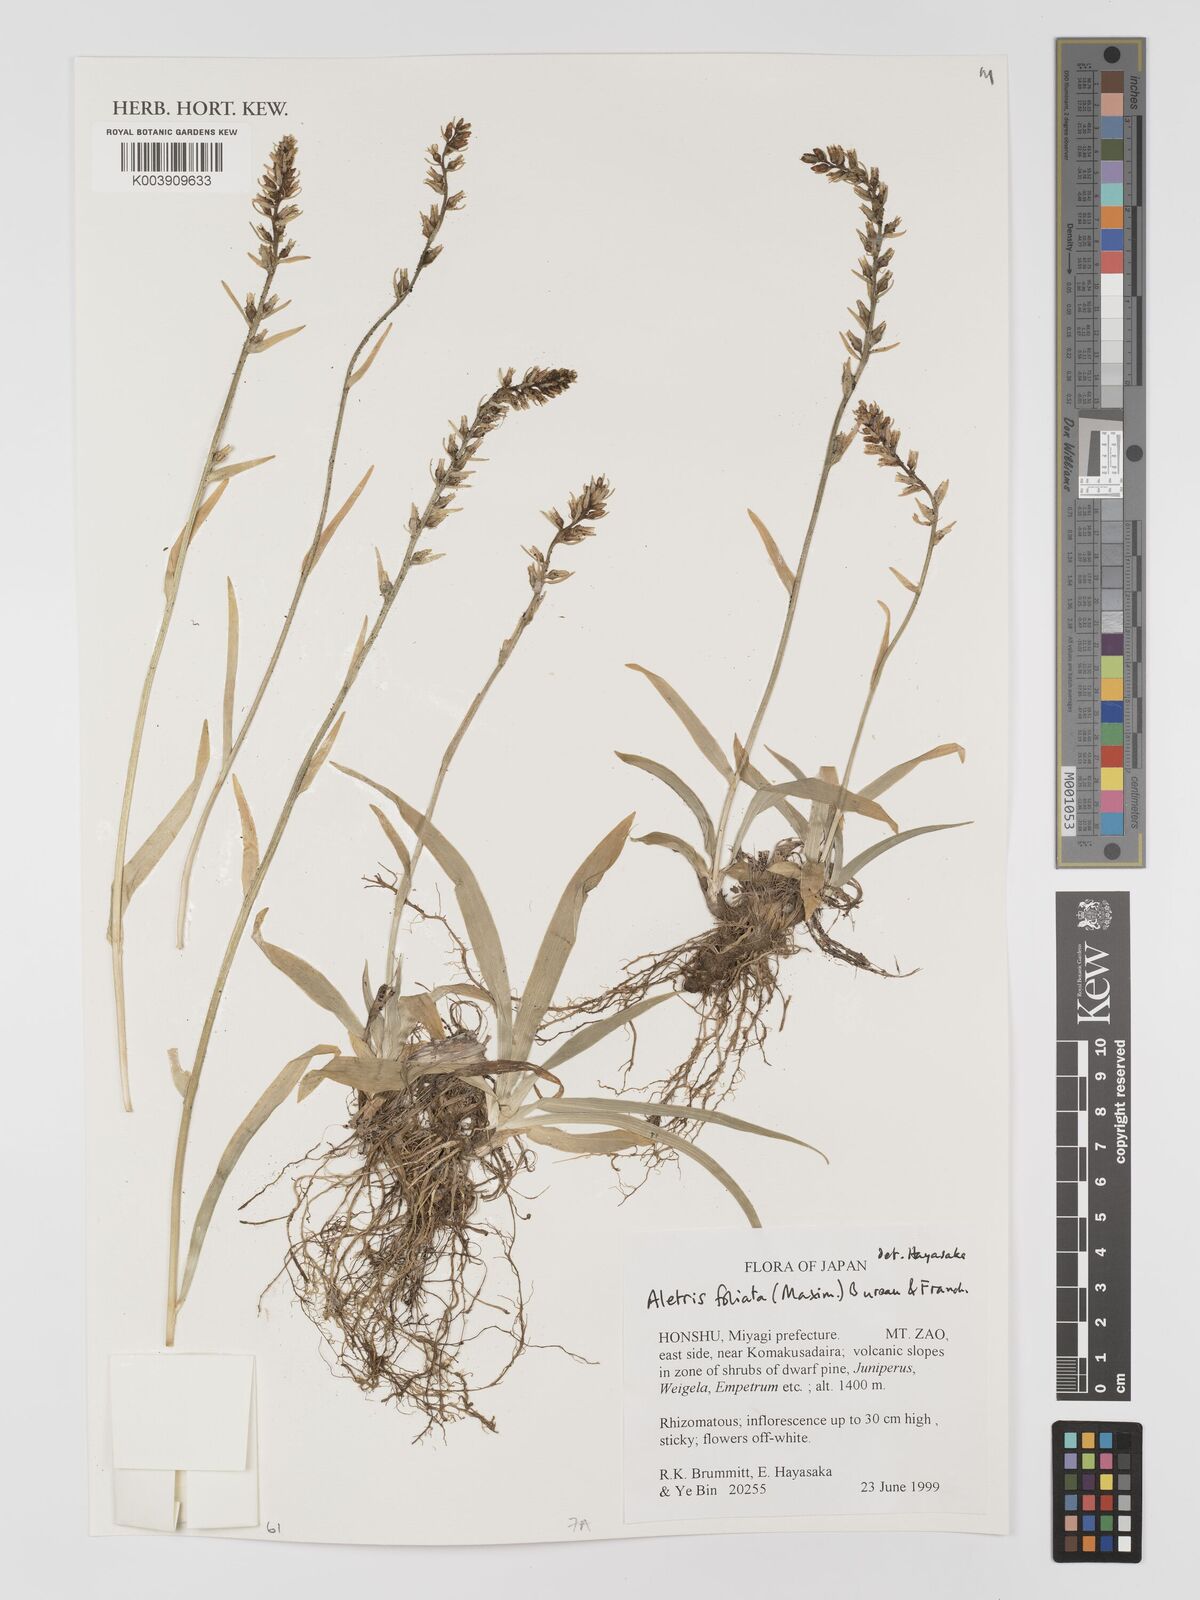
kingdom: Plantae
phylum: Tracheophyta
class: Liliopsida
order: Dioscoreales
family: Nartheciaceae
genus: Aletris
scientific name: Aletris foliata
